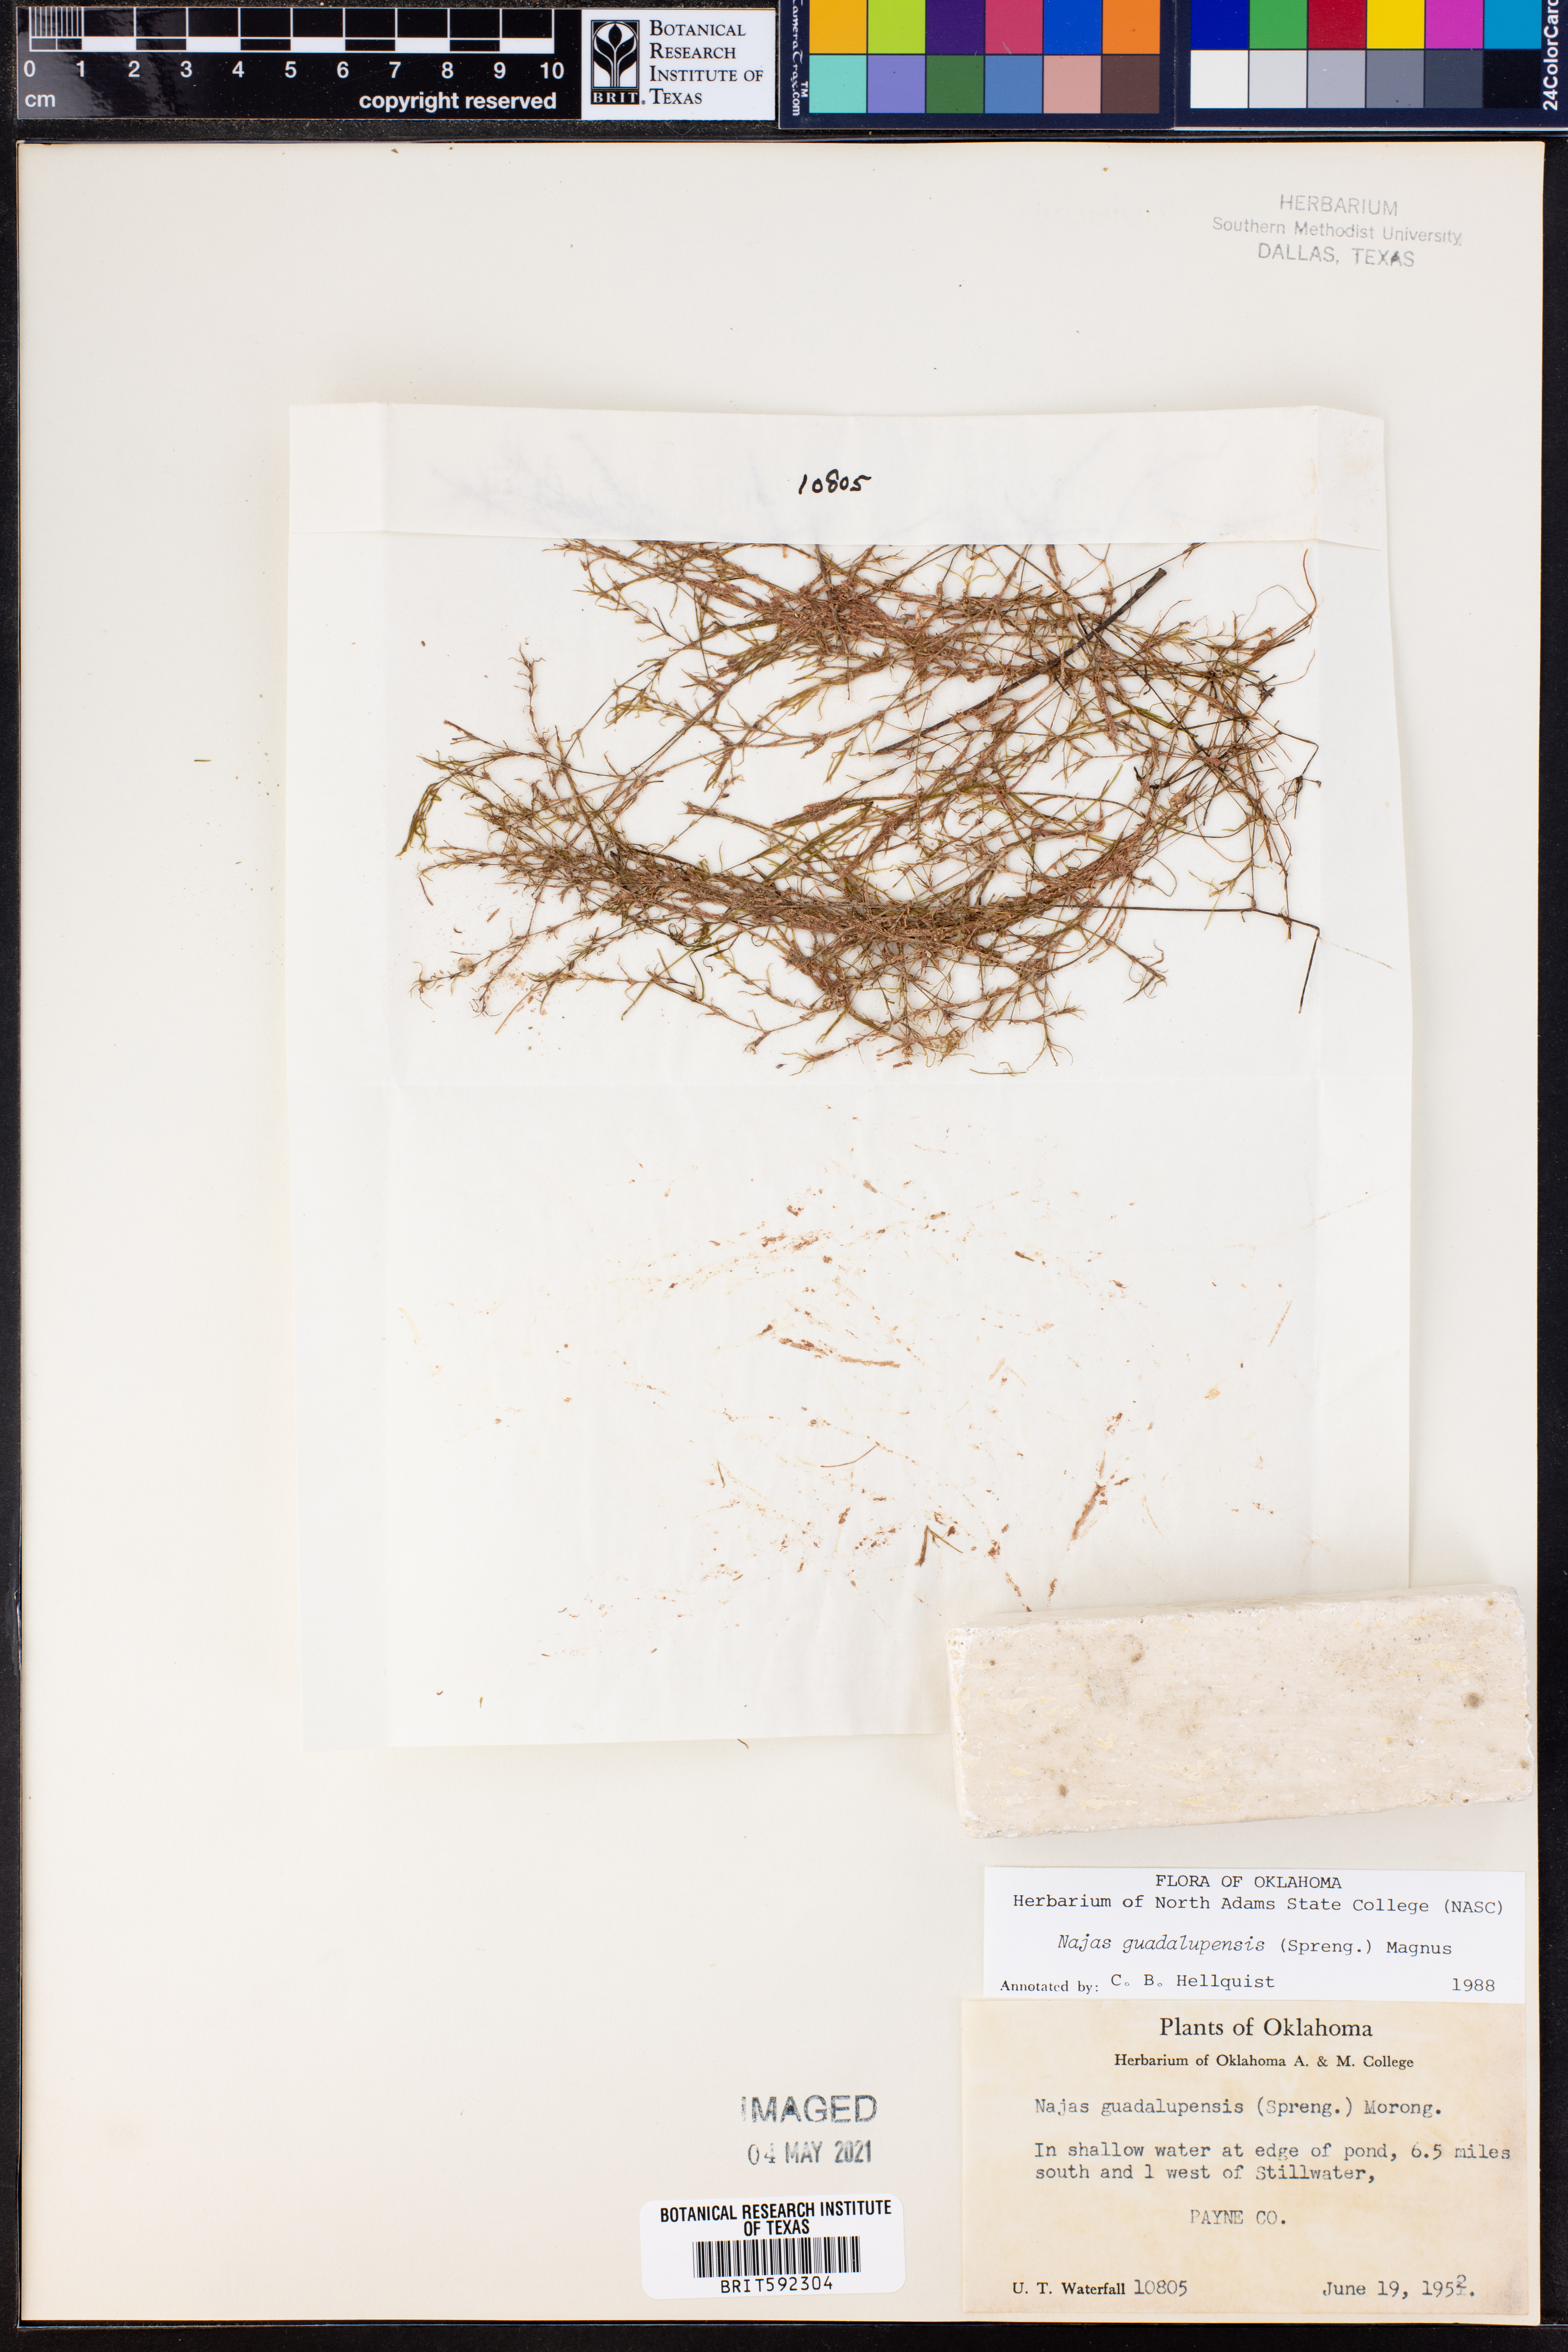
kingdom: Plantae
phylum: Tracheophyta
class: Liliopsida
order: Alismatales
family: Hydrocharitaceae
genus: Najas
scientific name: Najas guadalupensis
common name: Southern naiad
